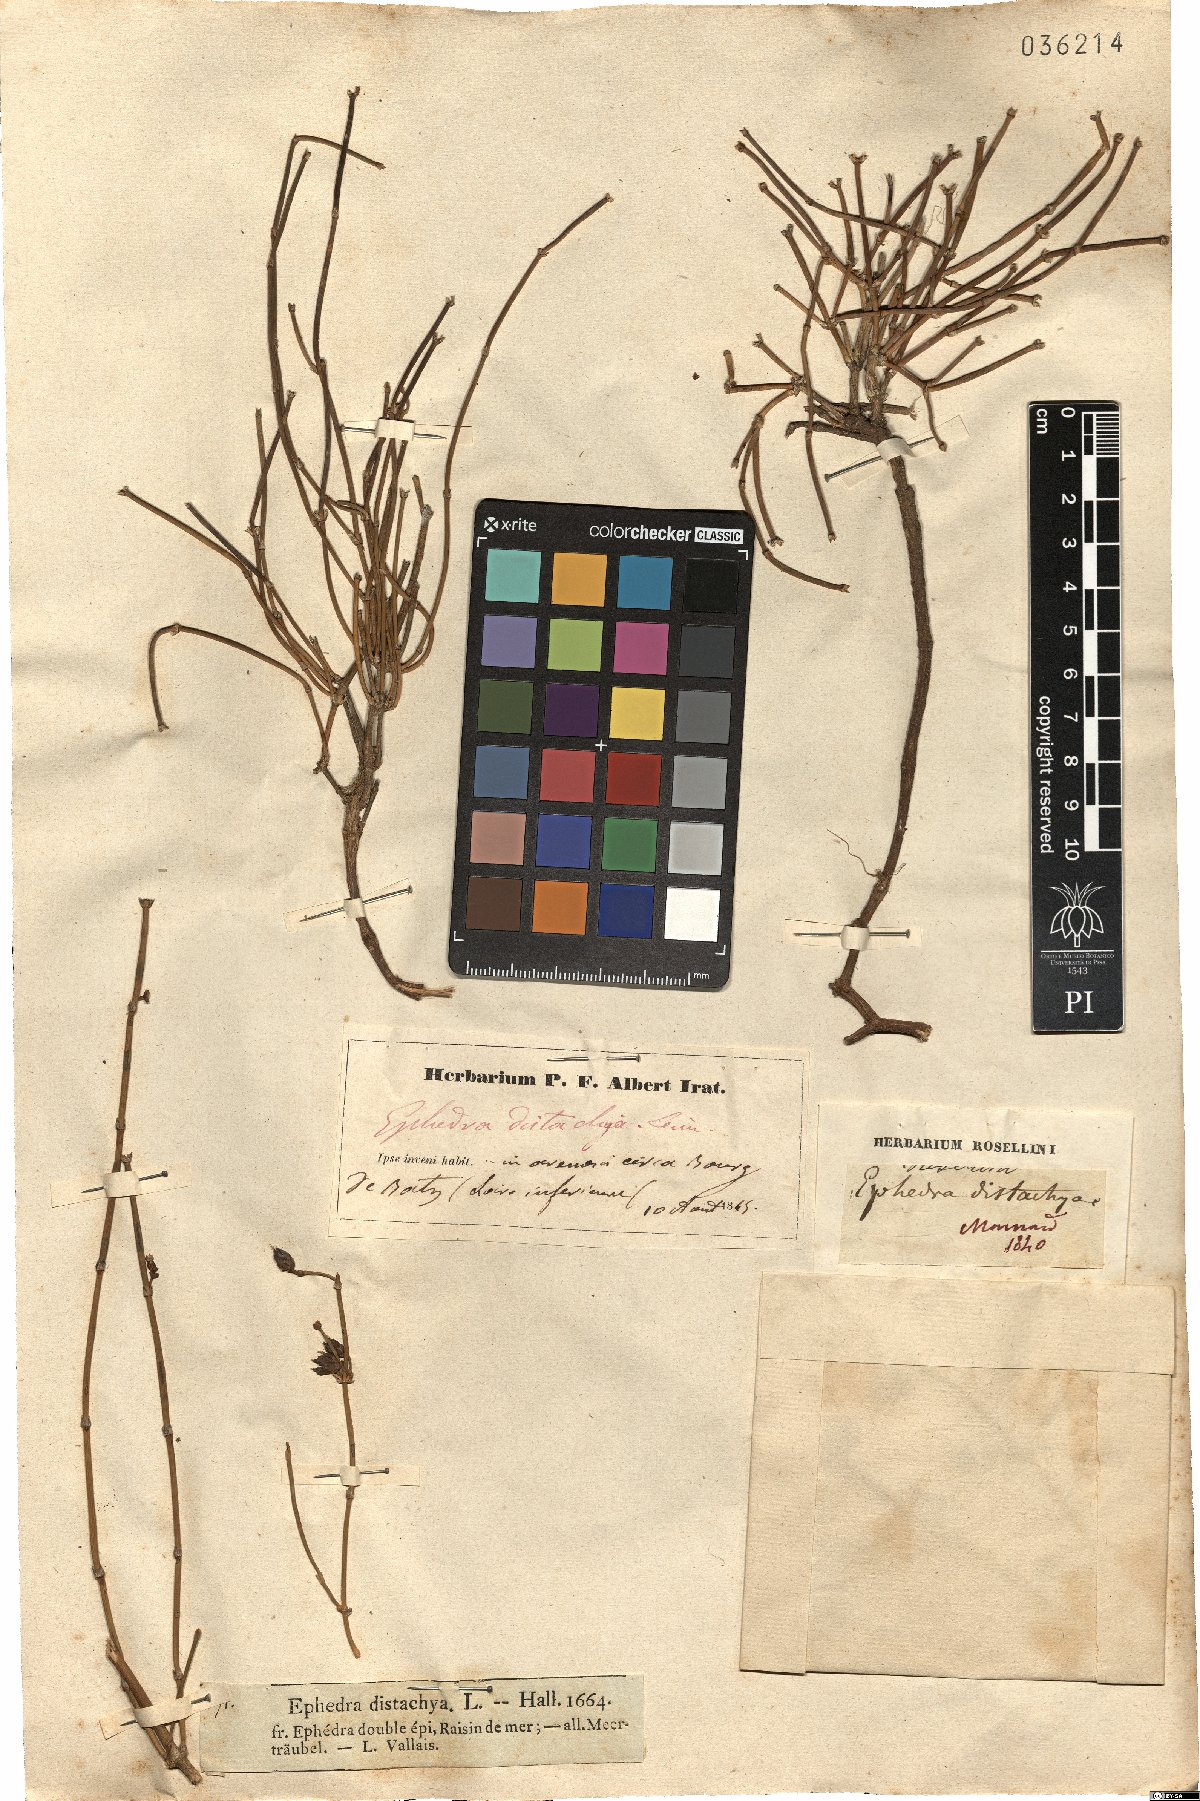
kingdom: Plantae
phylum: Tracheophyta
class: Gnetopsida
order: Ephedrales
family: Ephedraceae
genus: Ephedra
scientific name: Ephedra distachya
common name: Sea grape
